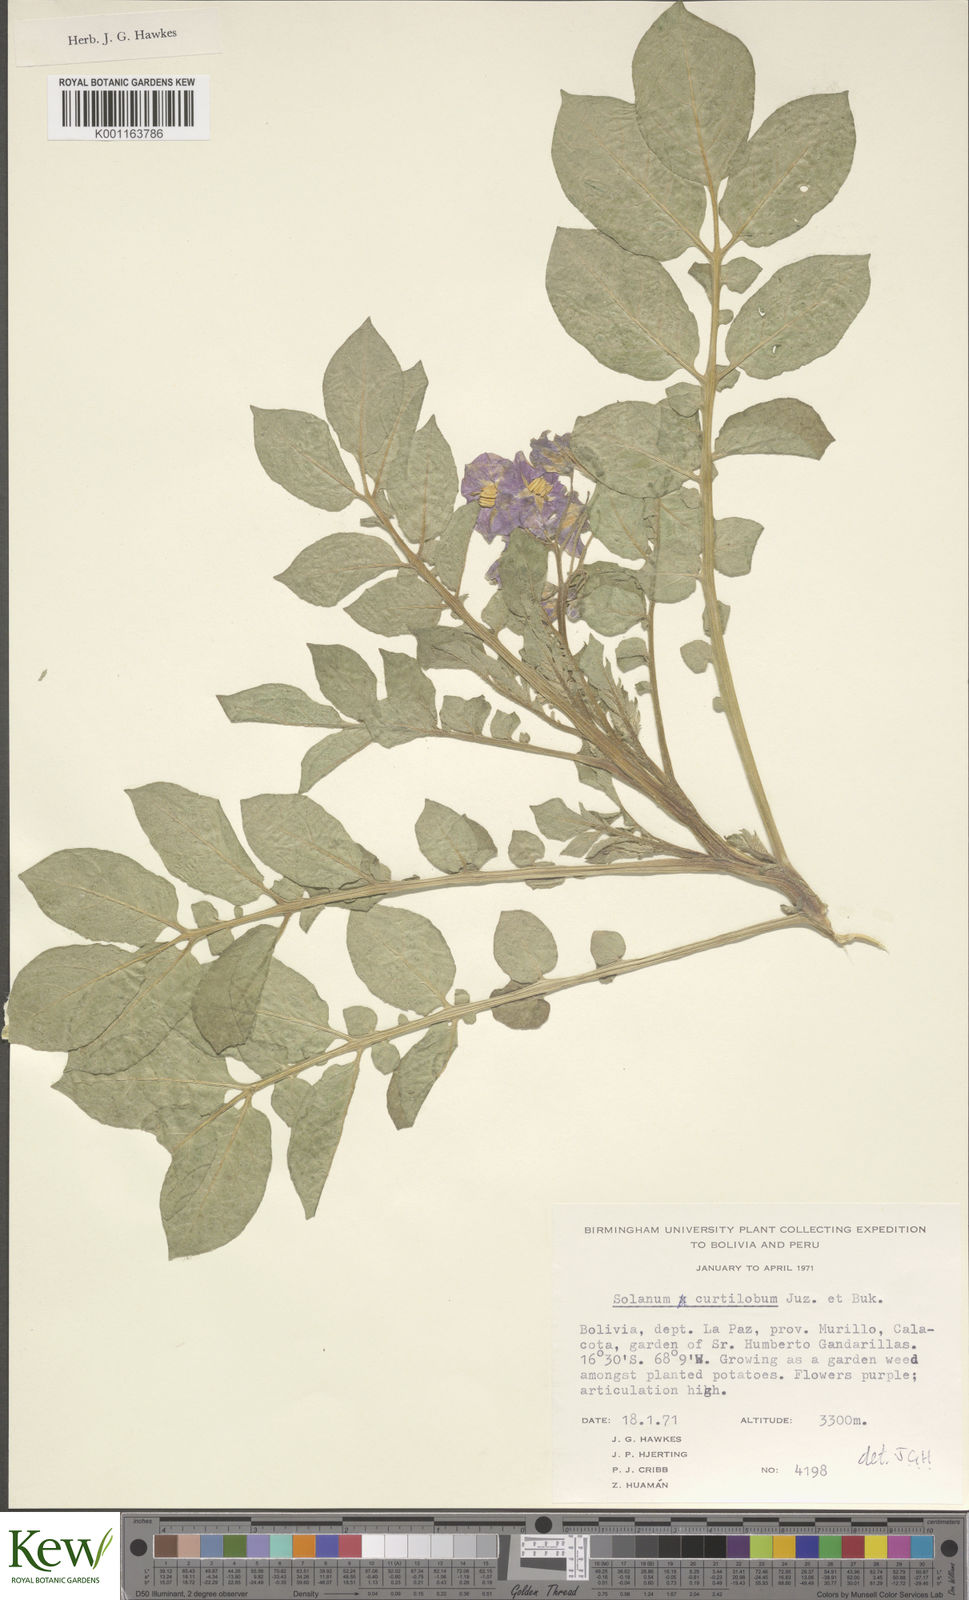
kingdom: Plantae
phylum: Tracheophyta
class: Magnoliopsida
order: Solanales
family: Solanaceae
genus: Solanum
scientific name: Solanum curtilobum
